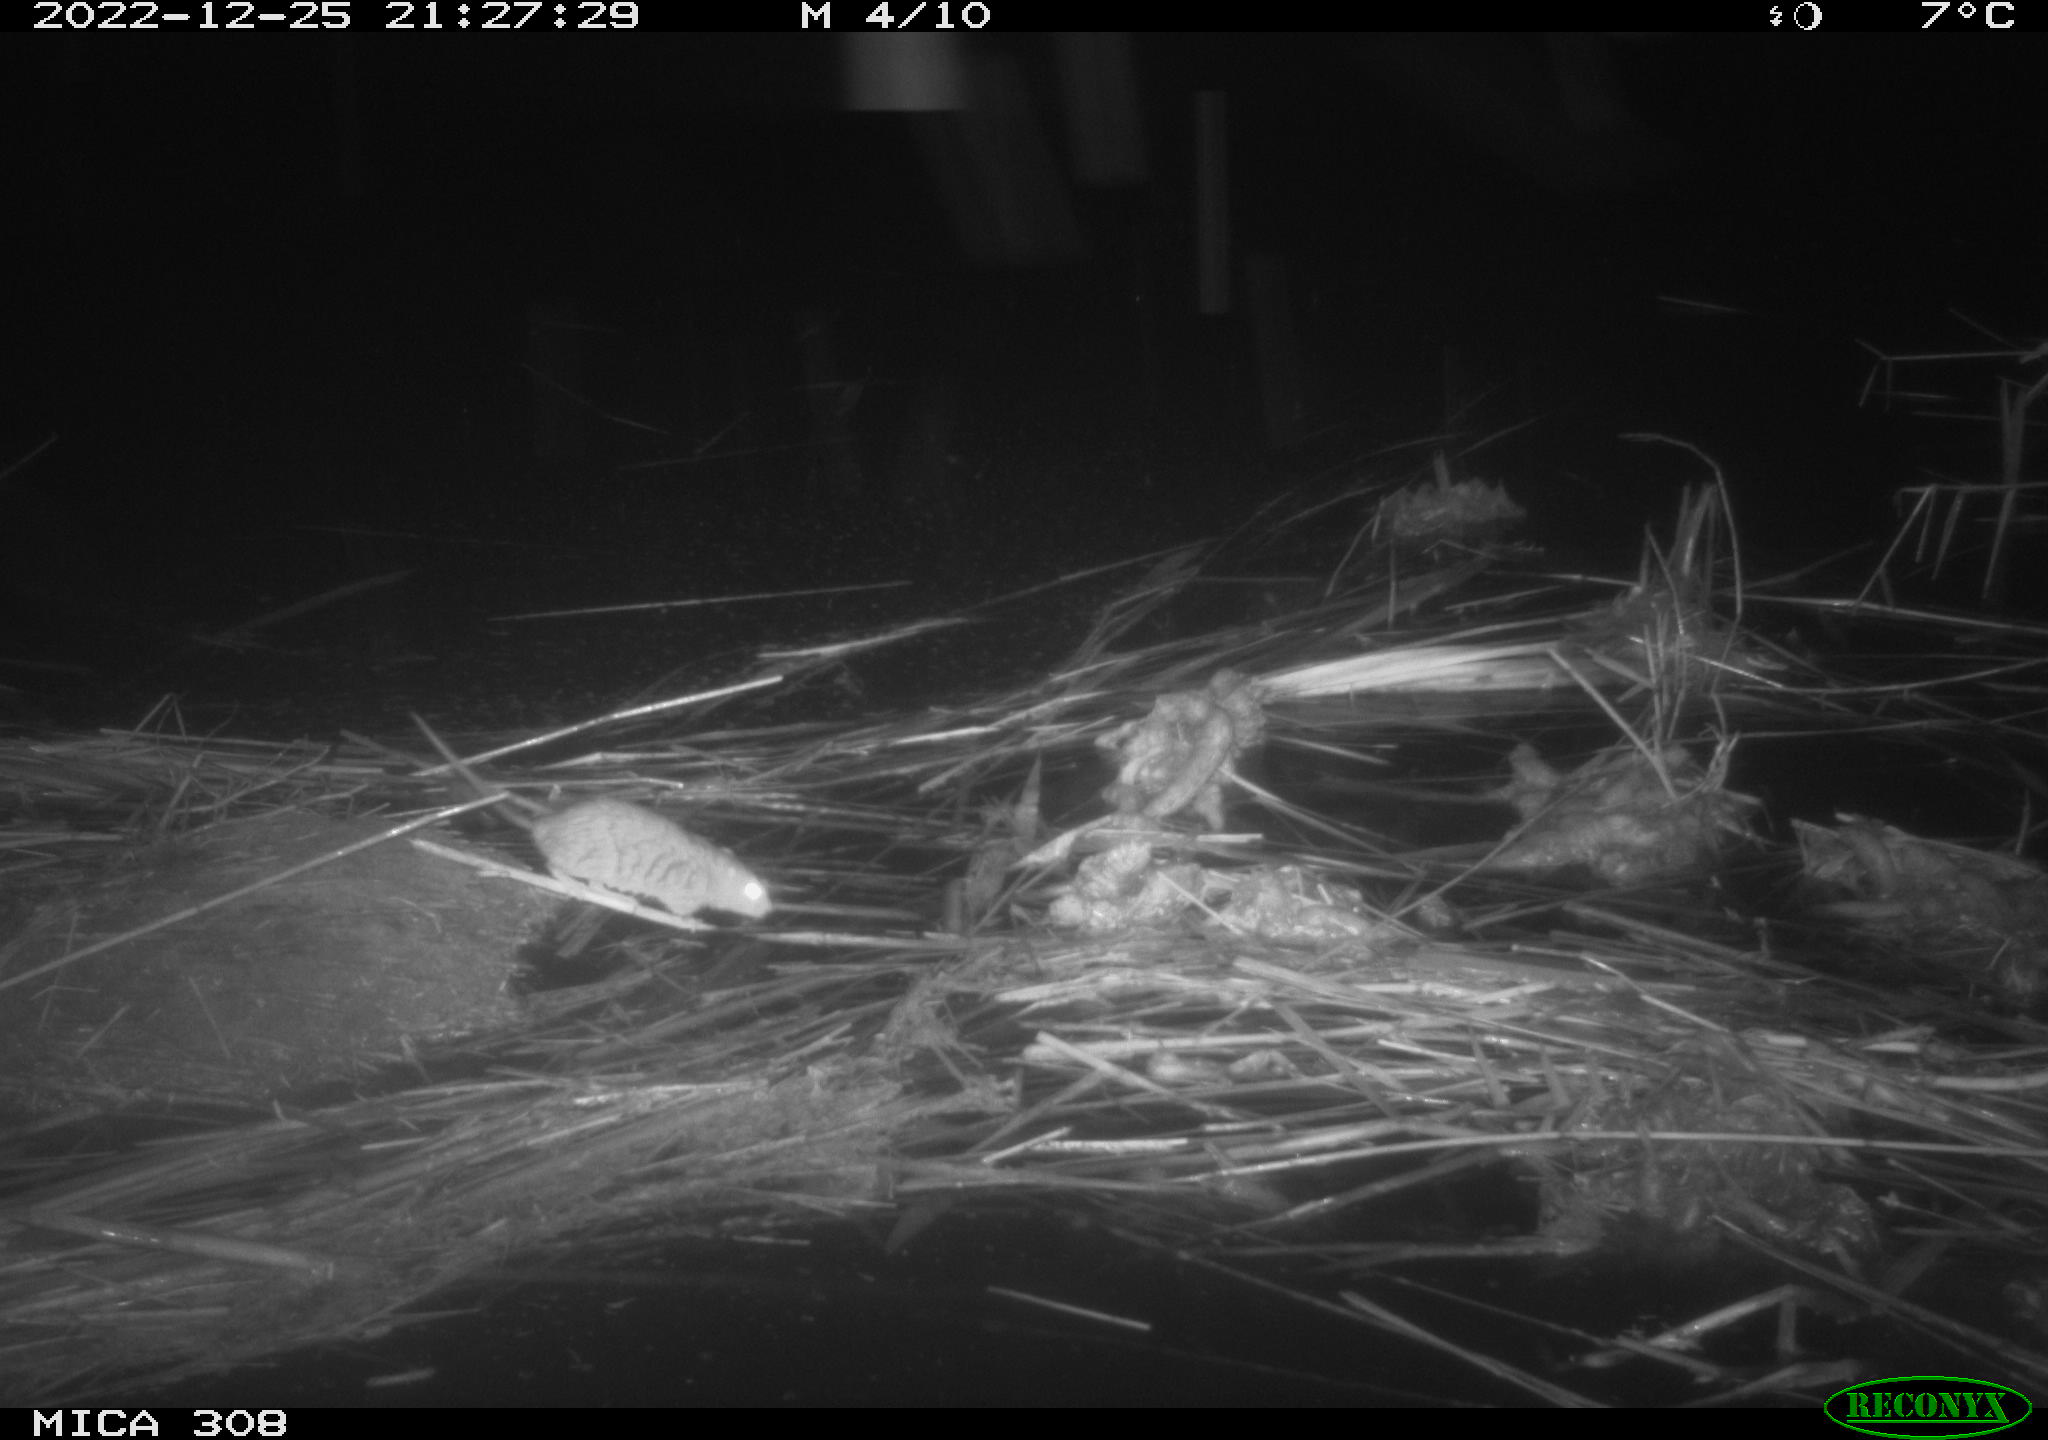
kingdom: Animalia
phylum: Chordata
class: Mammalia
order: Rodentia
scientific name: Rodentia
